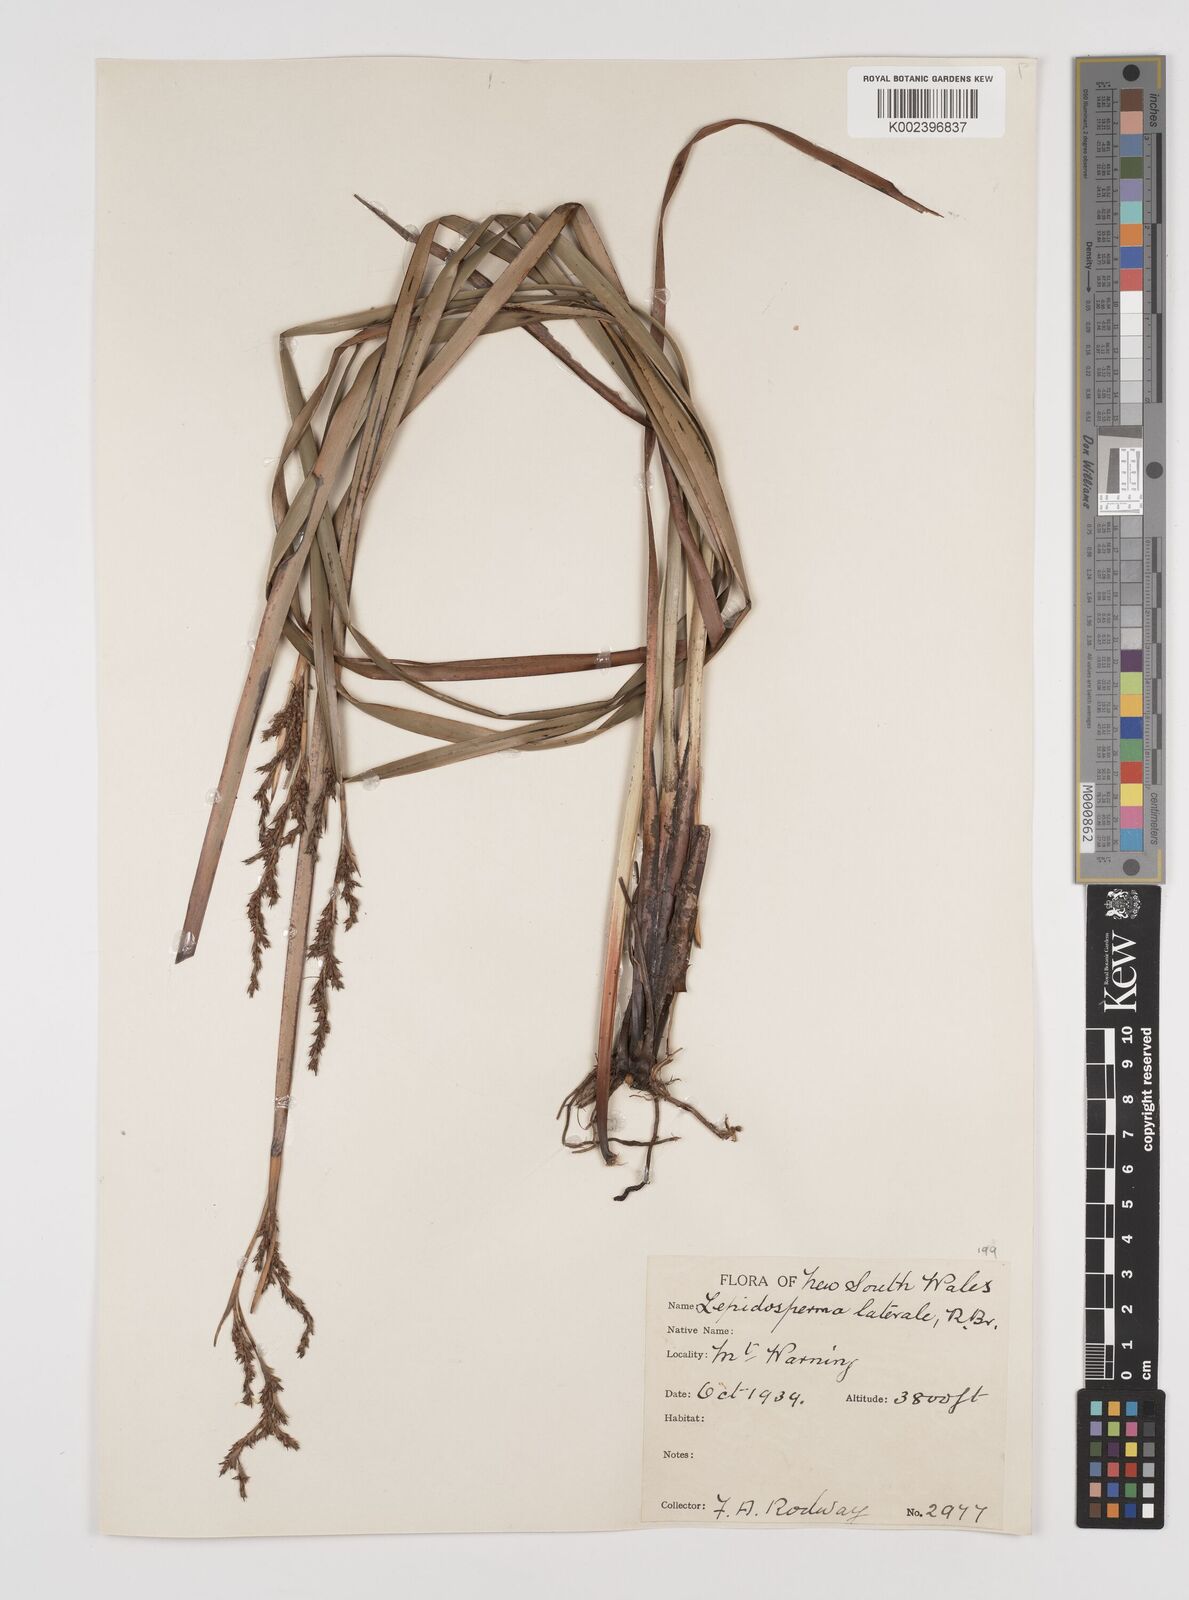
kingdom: Plantae
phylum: Tracheophyta
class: Liliopsida
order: Poales
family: Cyperaceae
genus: Lepidosperma
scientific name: Lepidosperma laterale
